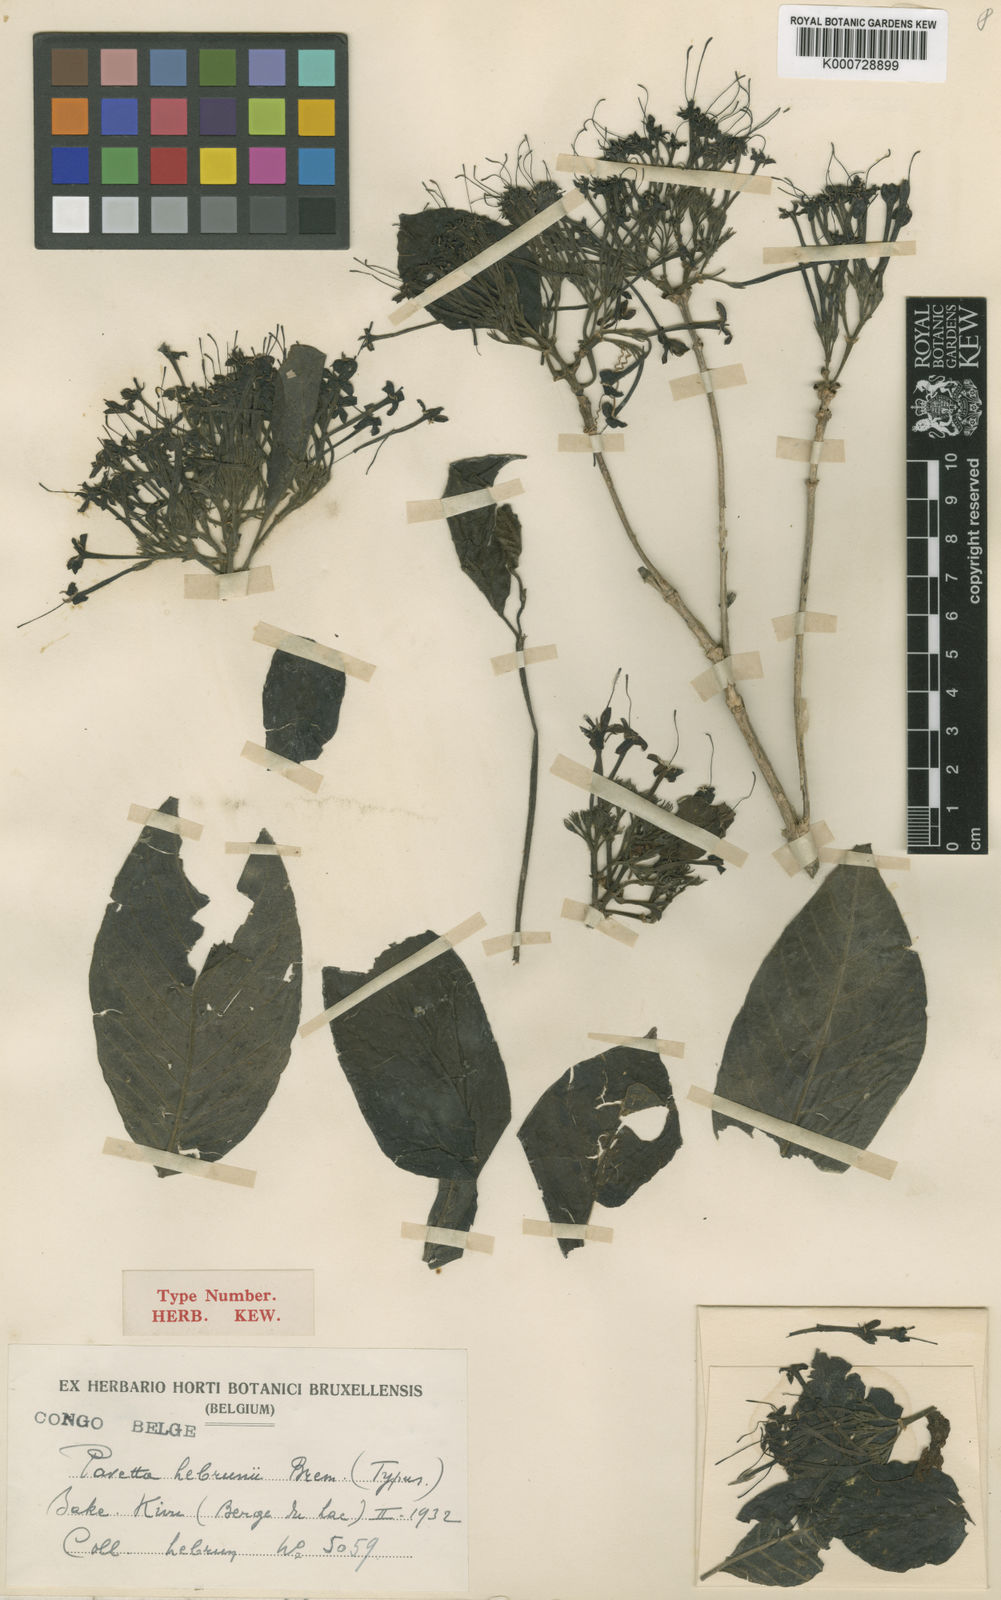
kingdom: Plantae
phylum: Tracheophyta
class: Magnoliopsida
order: Gentianales
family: Rubiaceae
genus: Pavetta
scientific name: Pavetta oliveriana
